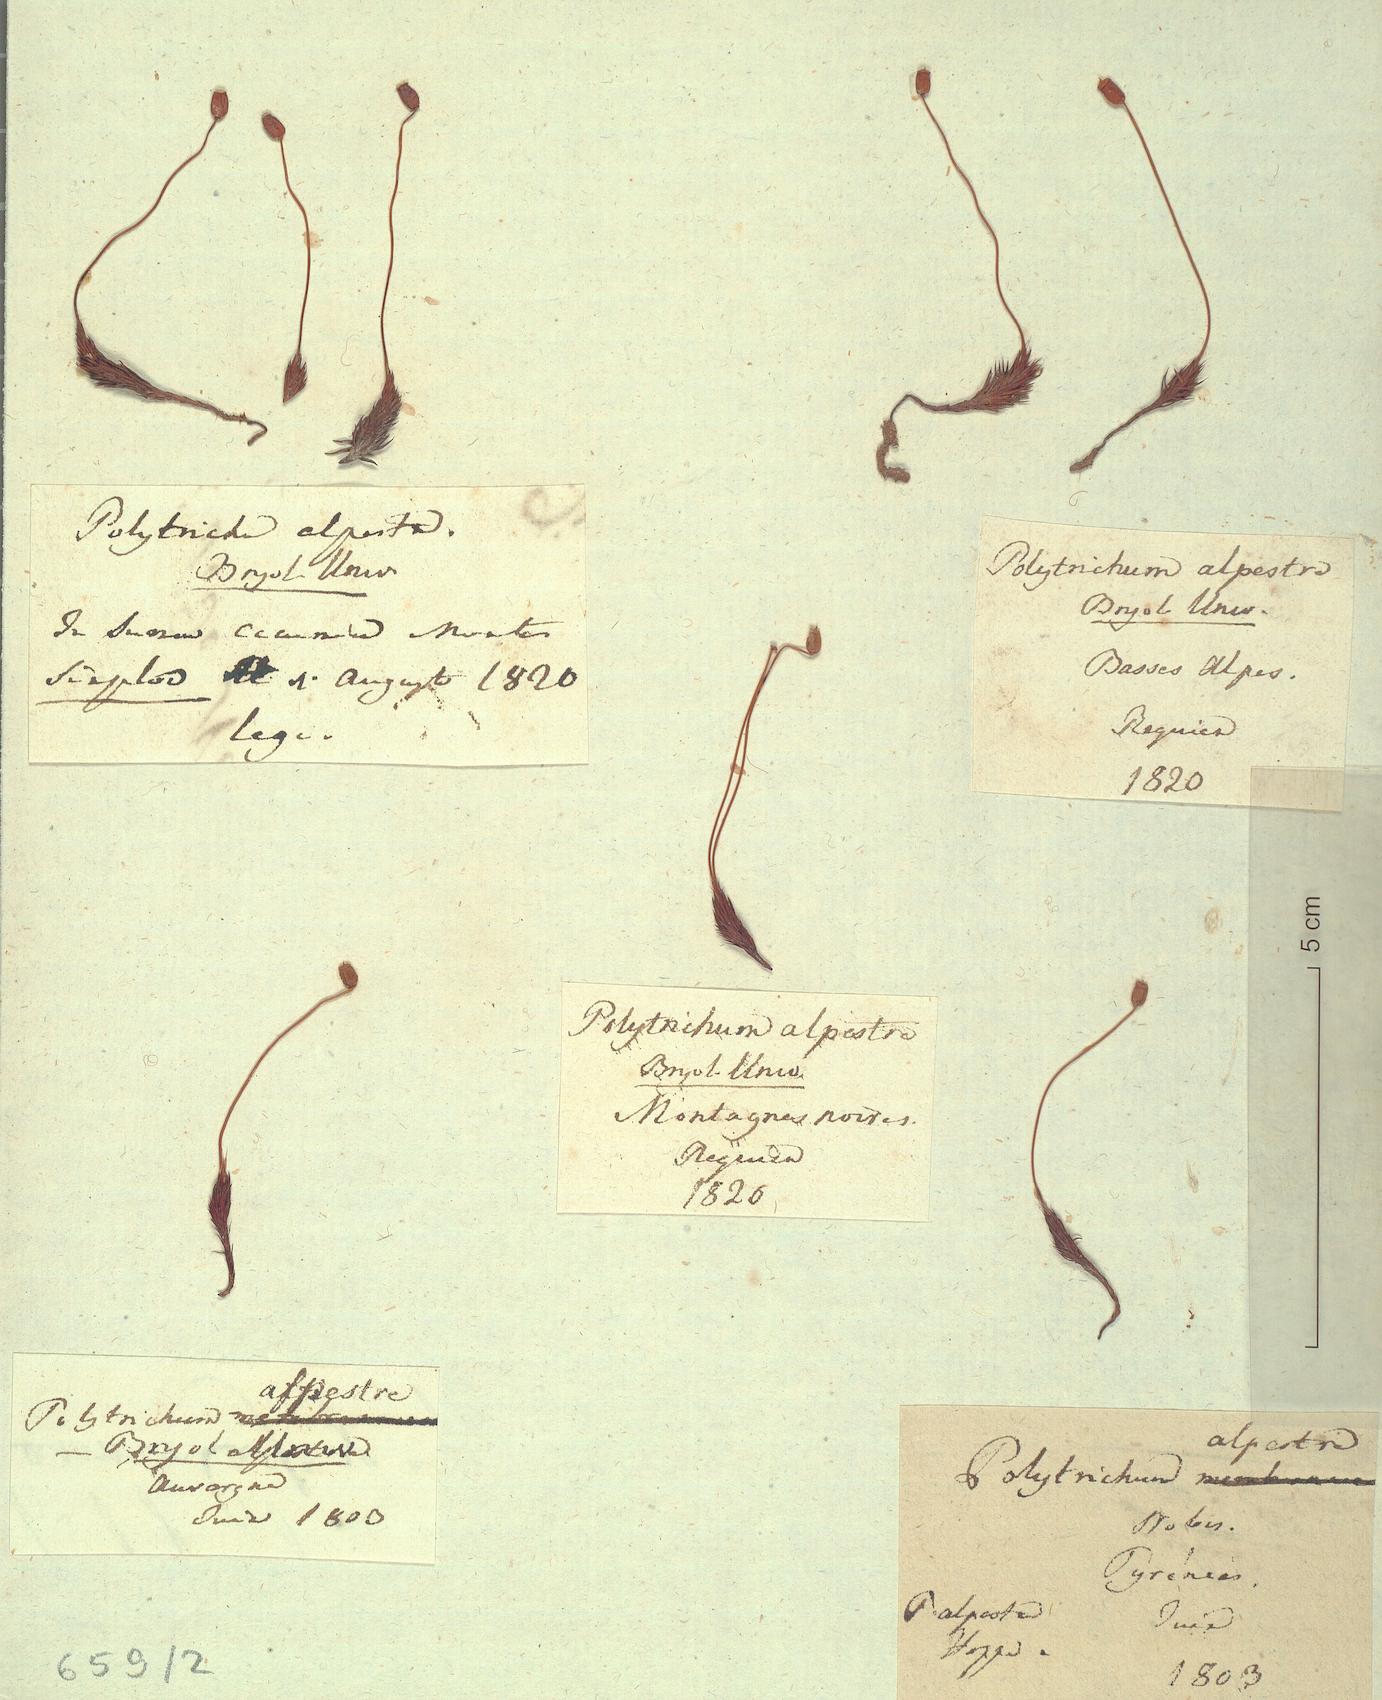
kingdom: Plantae
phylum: Bryophyta
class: Polytrichopsida
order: Polytrichales
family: Polytrichaceae
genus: Polytrichum
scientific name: Polytrichum strictum
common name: Bog haircap moss
